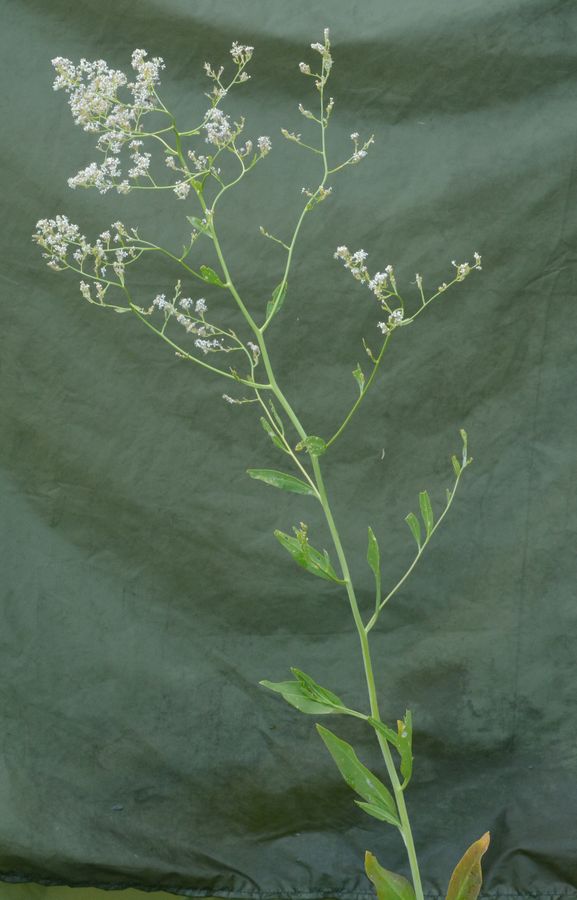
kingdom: Plantae
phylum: Tracheophyta
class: Magnoliopsida
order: Brassicales
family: Brassicaceae
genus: Lepidium
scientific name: Lepidium latifolium
